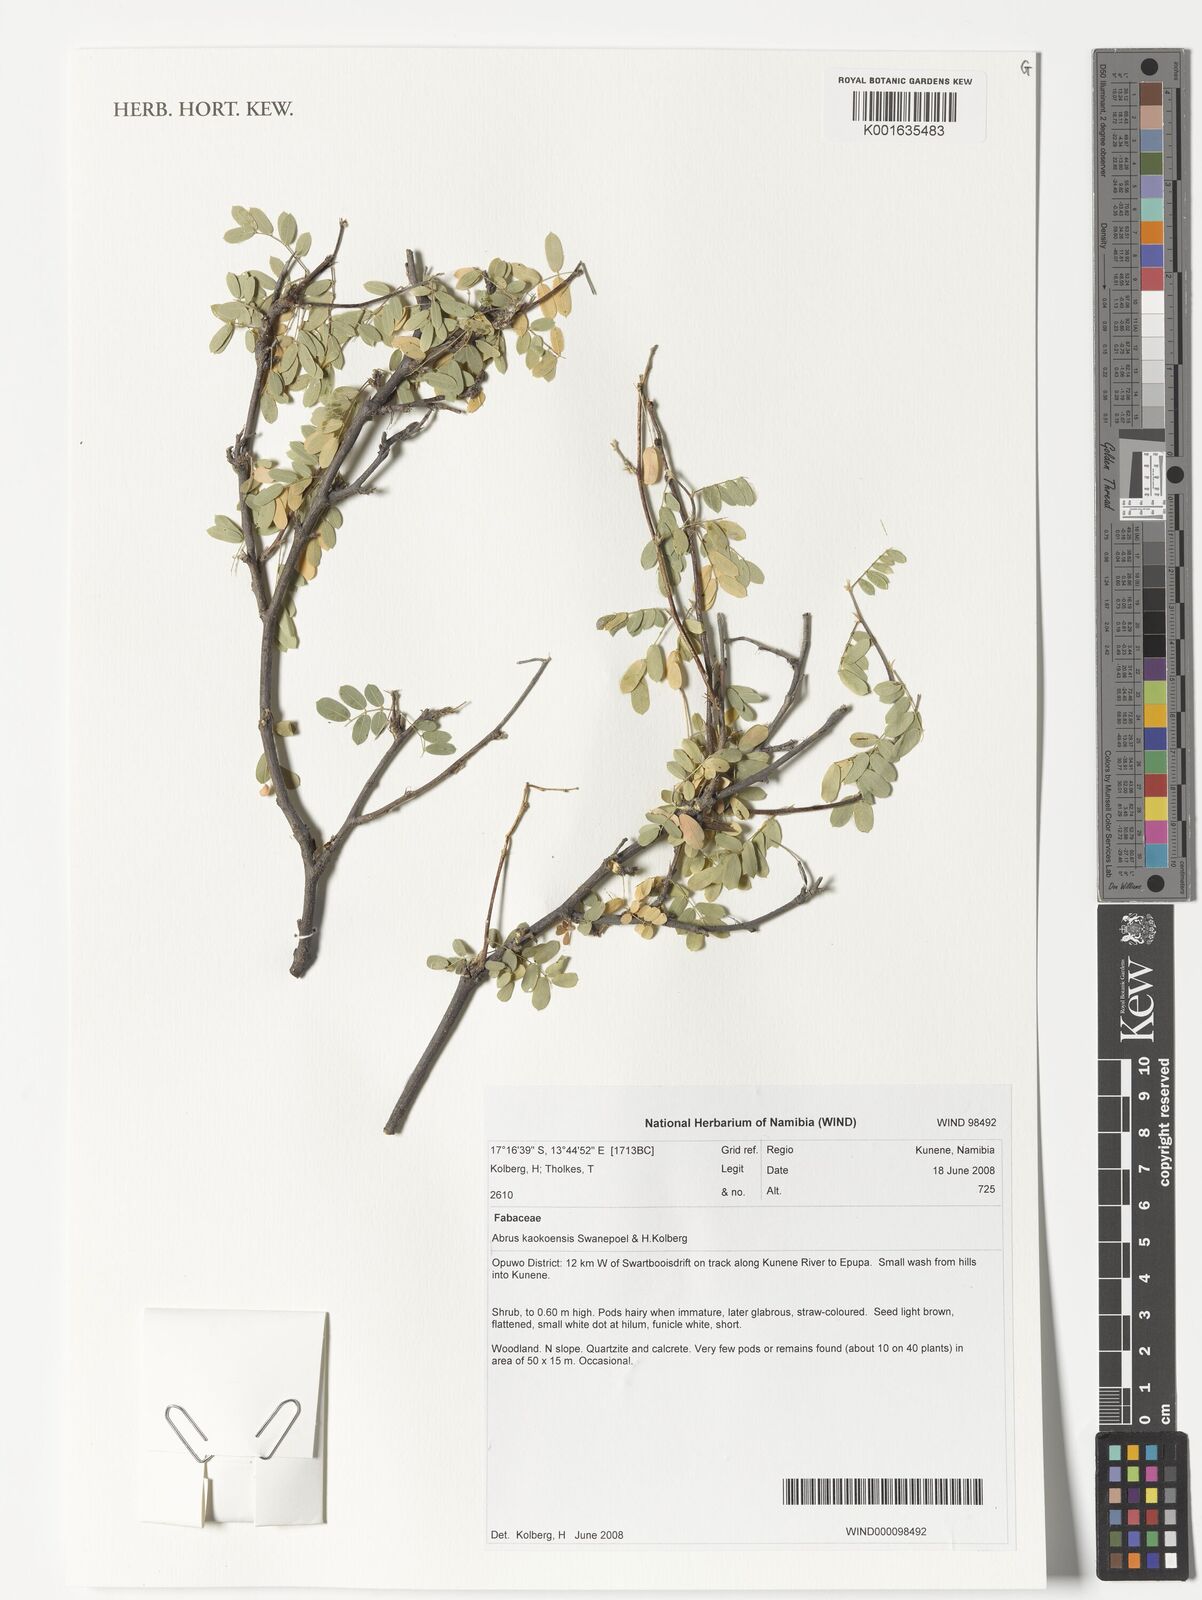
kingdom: Plantae
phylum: Tracheophyta
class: Magnoliopsida
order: Fabales
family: Fabaceae
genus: Abrus
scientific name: Abrus kaokoensis
